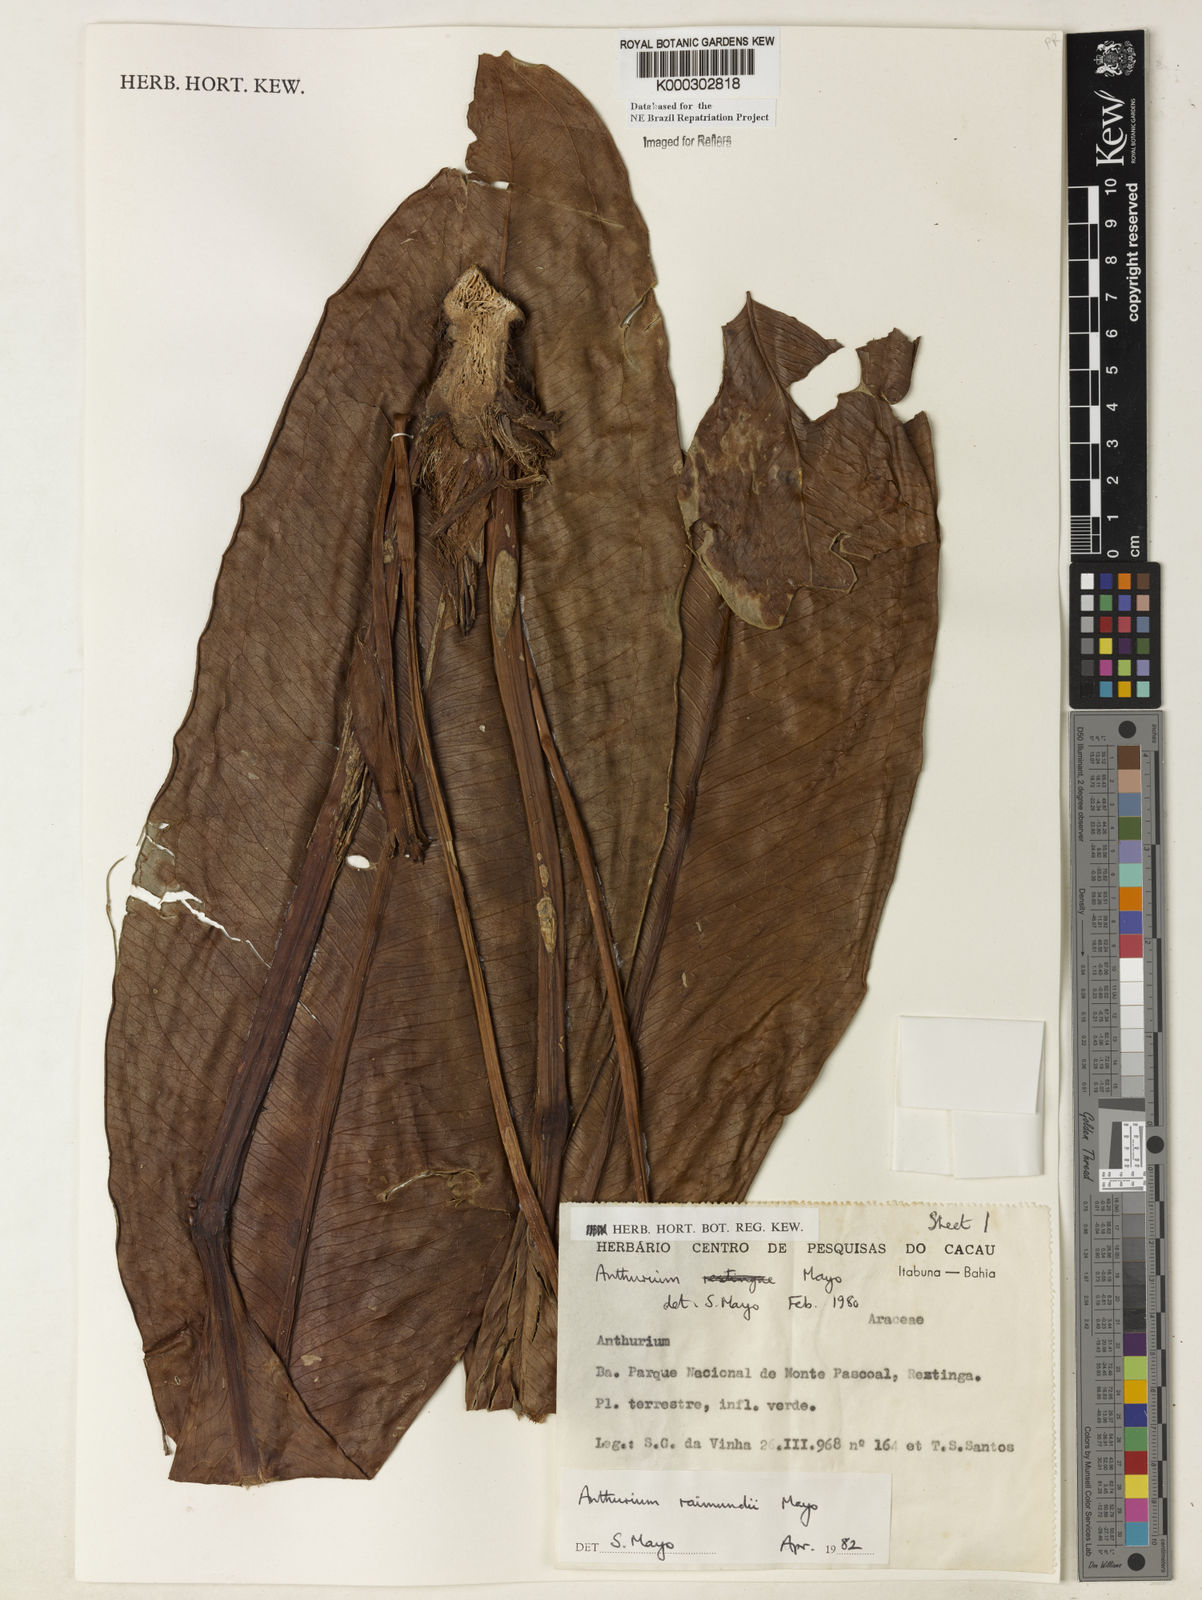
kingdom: Plantae
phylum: Tracheophyta
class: Liliopsida
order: Alismatales
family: Araceae
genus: Anthurium
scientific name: Anthurium raimundii
